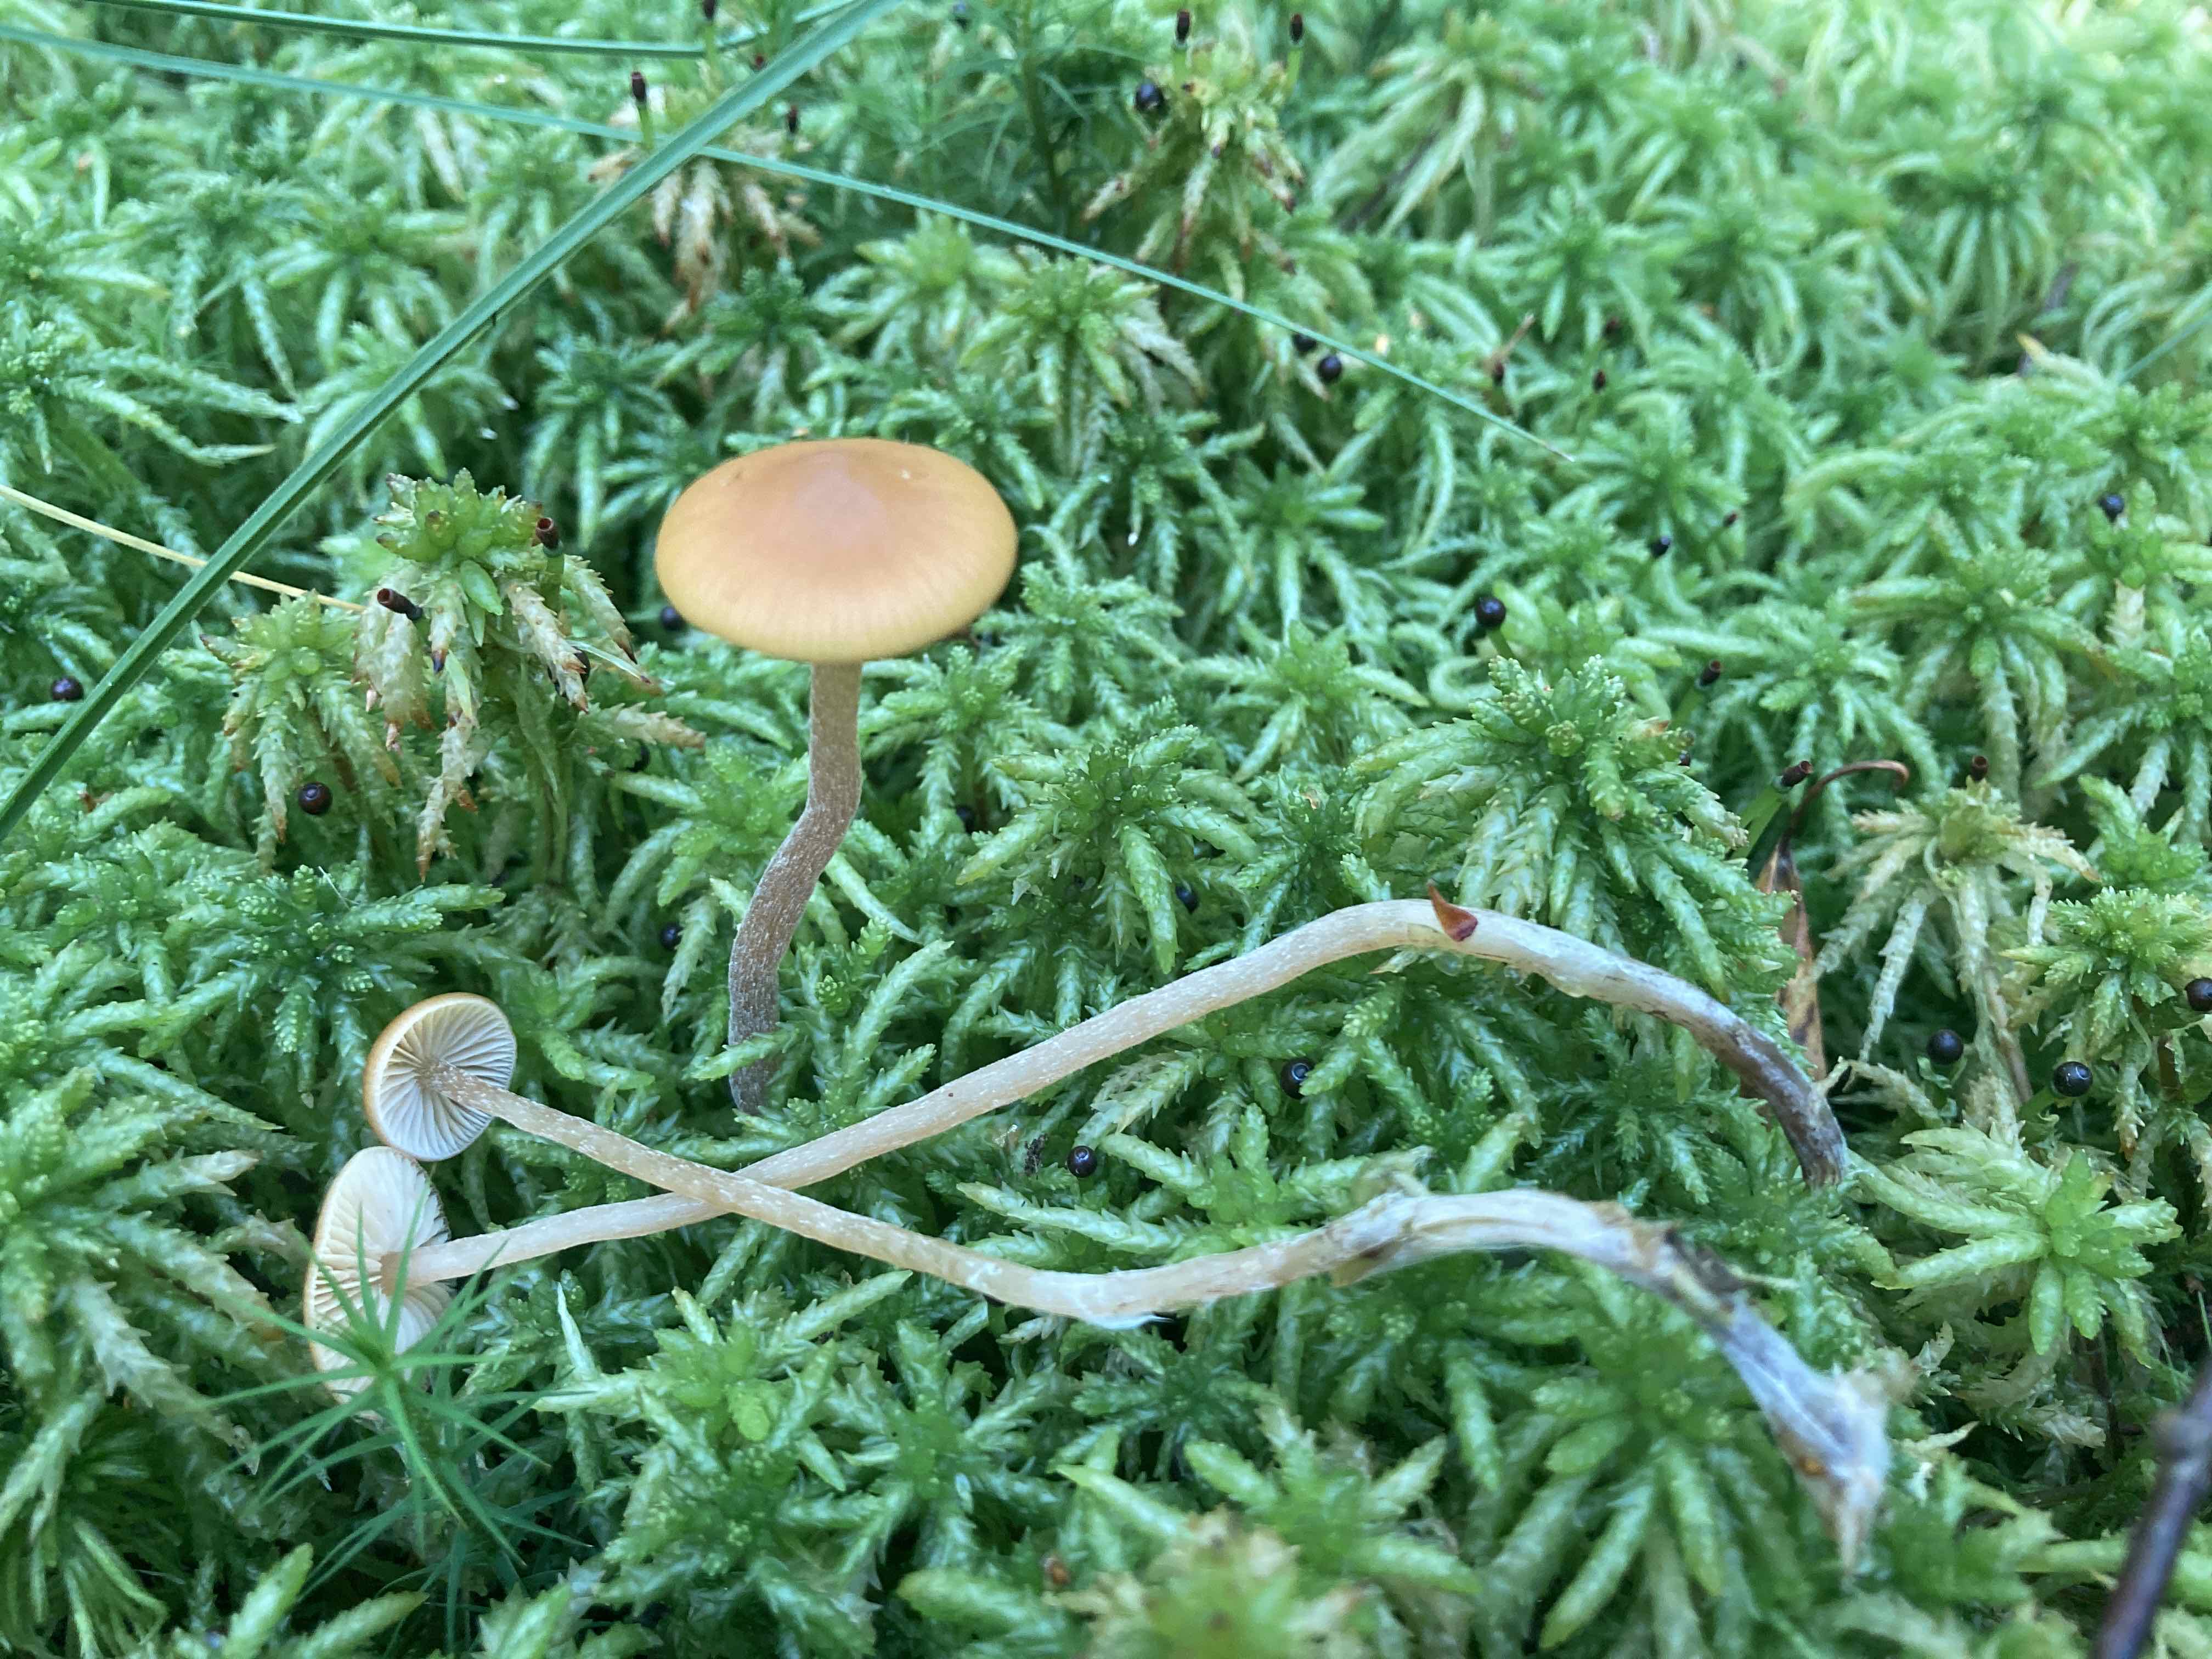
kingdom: Fungi
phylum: Basidiomycota
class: Agaricomycetes
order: Agaricales
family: Hymenogastraceae
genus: Galerina
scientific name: Galerina hybrida
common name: hængesæk-hjelmhat
